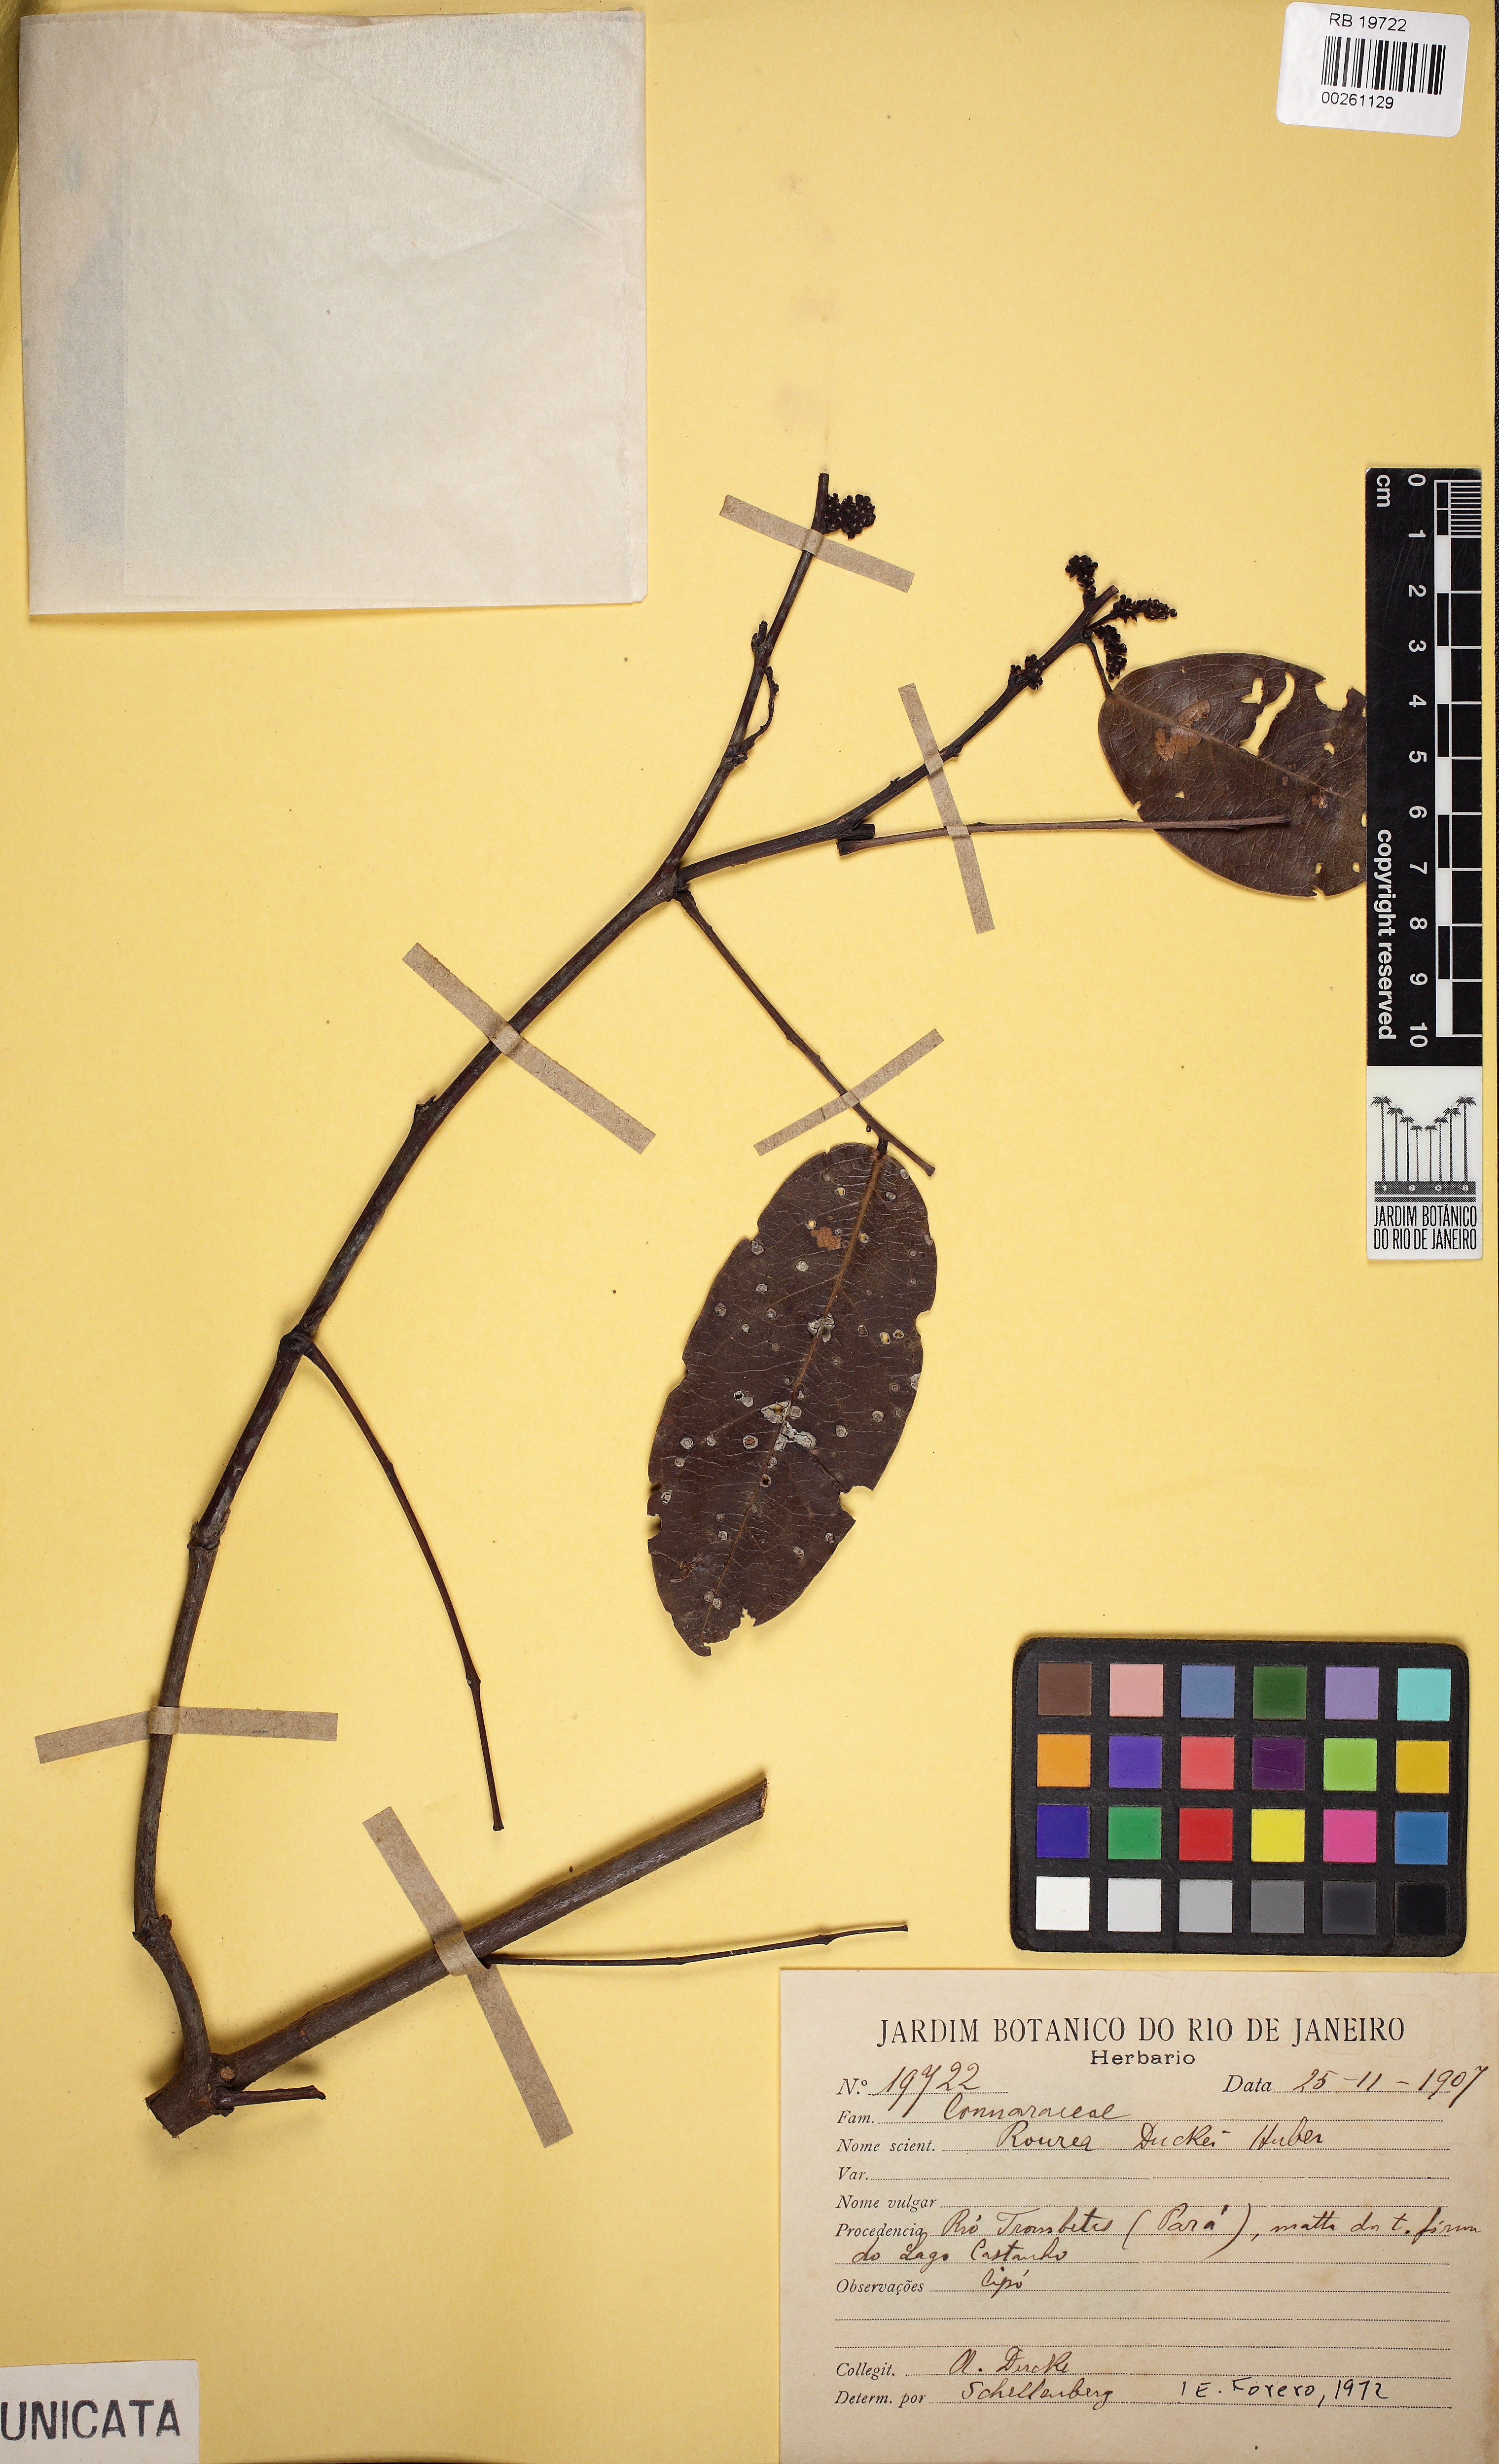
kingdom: Plantae
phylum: Tracheophyta
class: Magnoliopsida
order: Oxalidales
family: Connaraceae
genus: Rourea
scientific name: Rourea duckei
